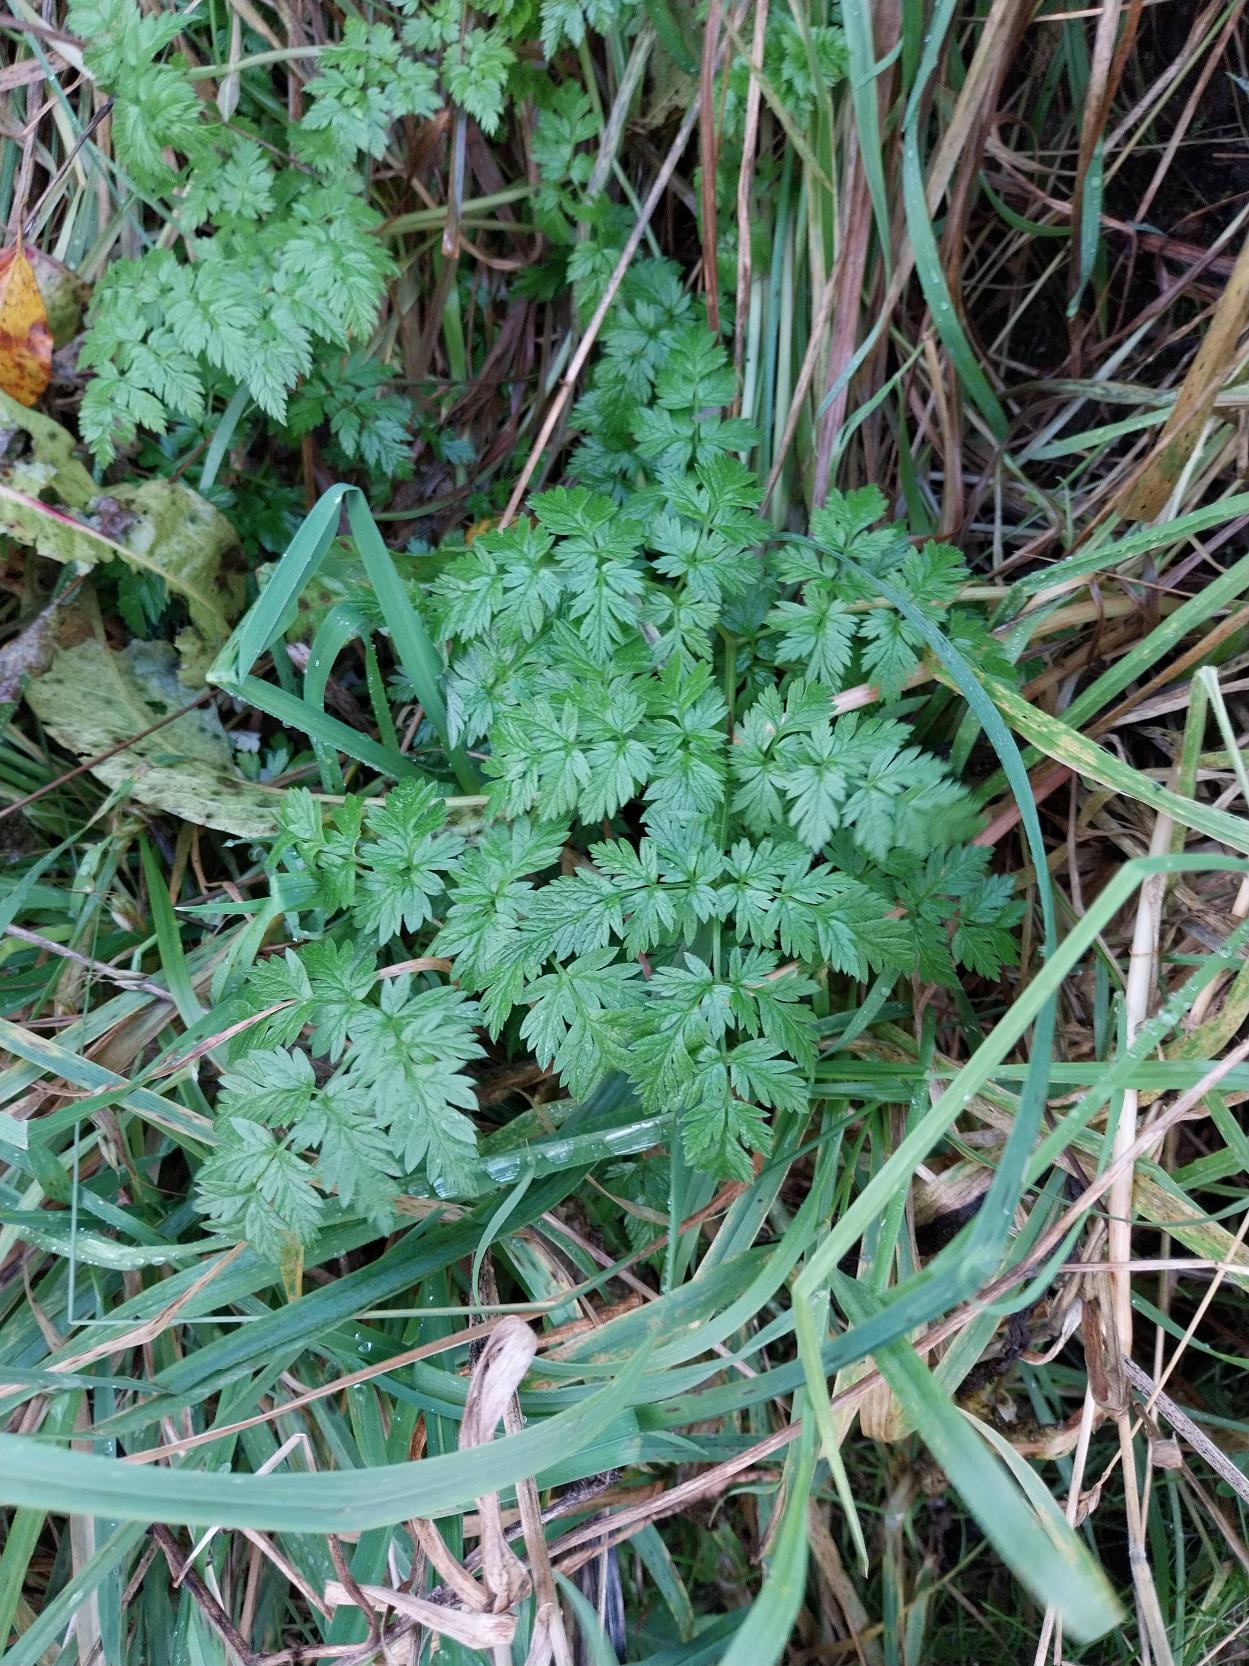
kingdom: Plantae
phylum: Tracheophyta
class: Magnoliopsida
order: Apiales
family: Apiaceae
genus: Anthriscus
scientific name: Anthriscus sylvestris
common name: Vild kørvel
